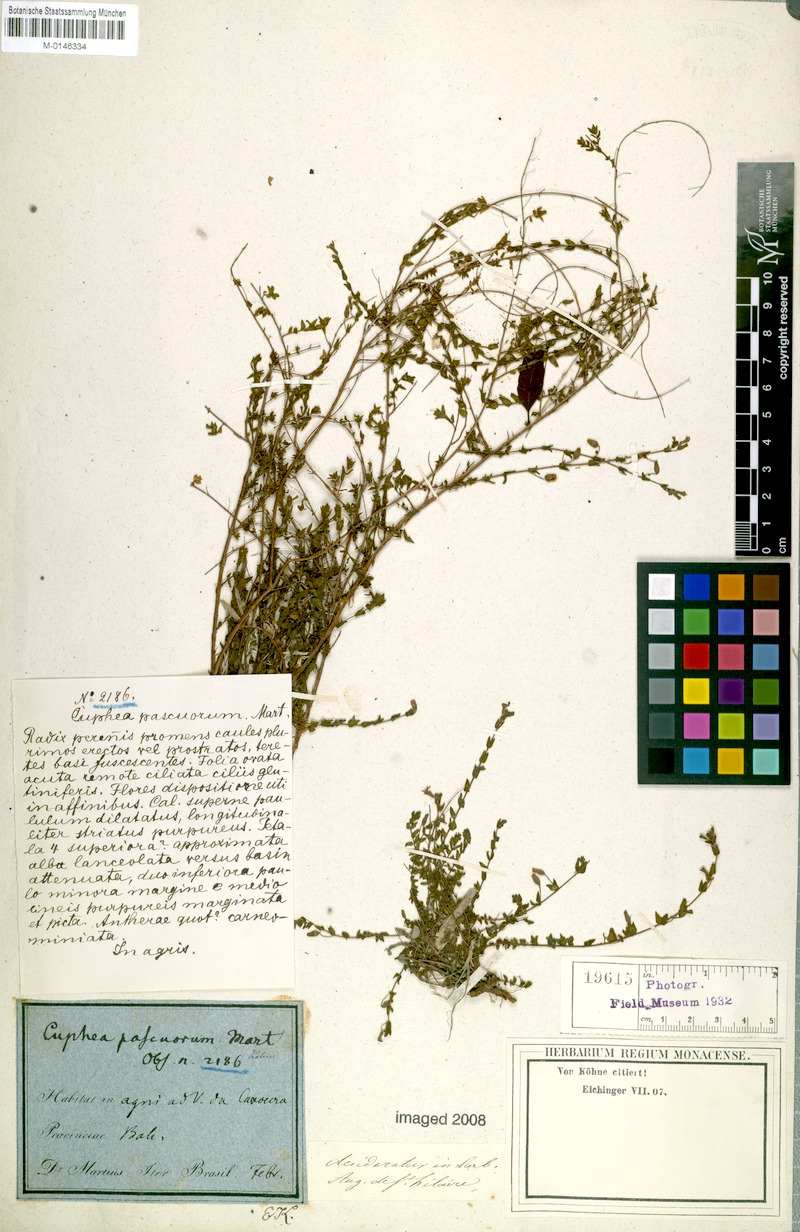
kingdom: Plantae
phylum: Tracheophyta
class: Magnoliopsida
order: Myrtales
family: Lythraceae
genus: Cuphea
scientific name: Cuphea pascuorum
